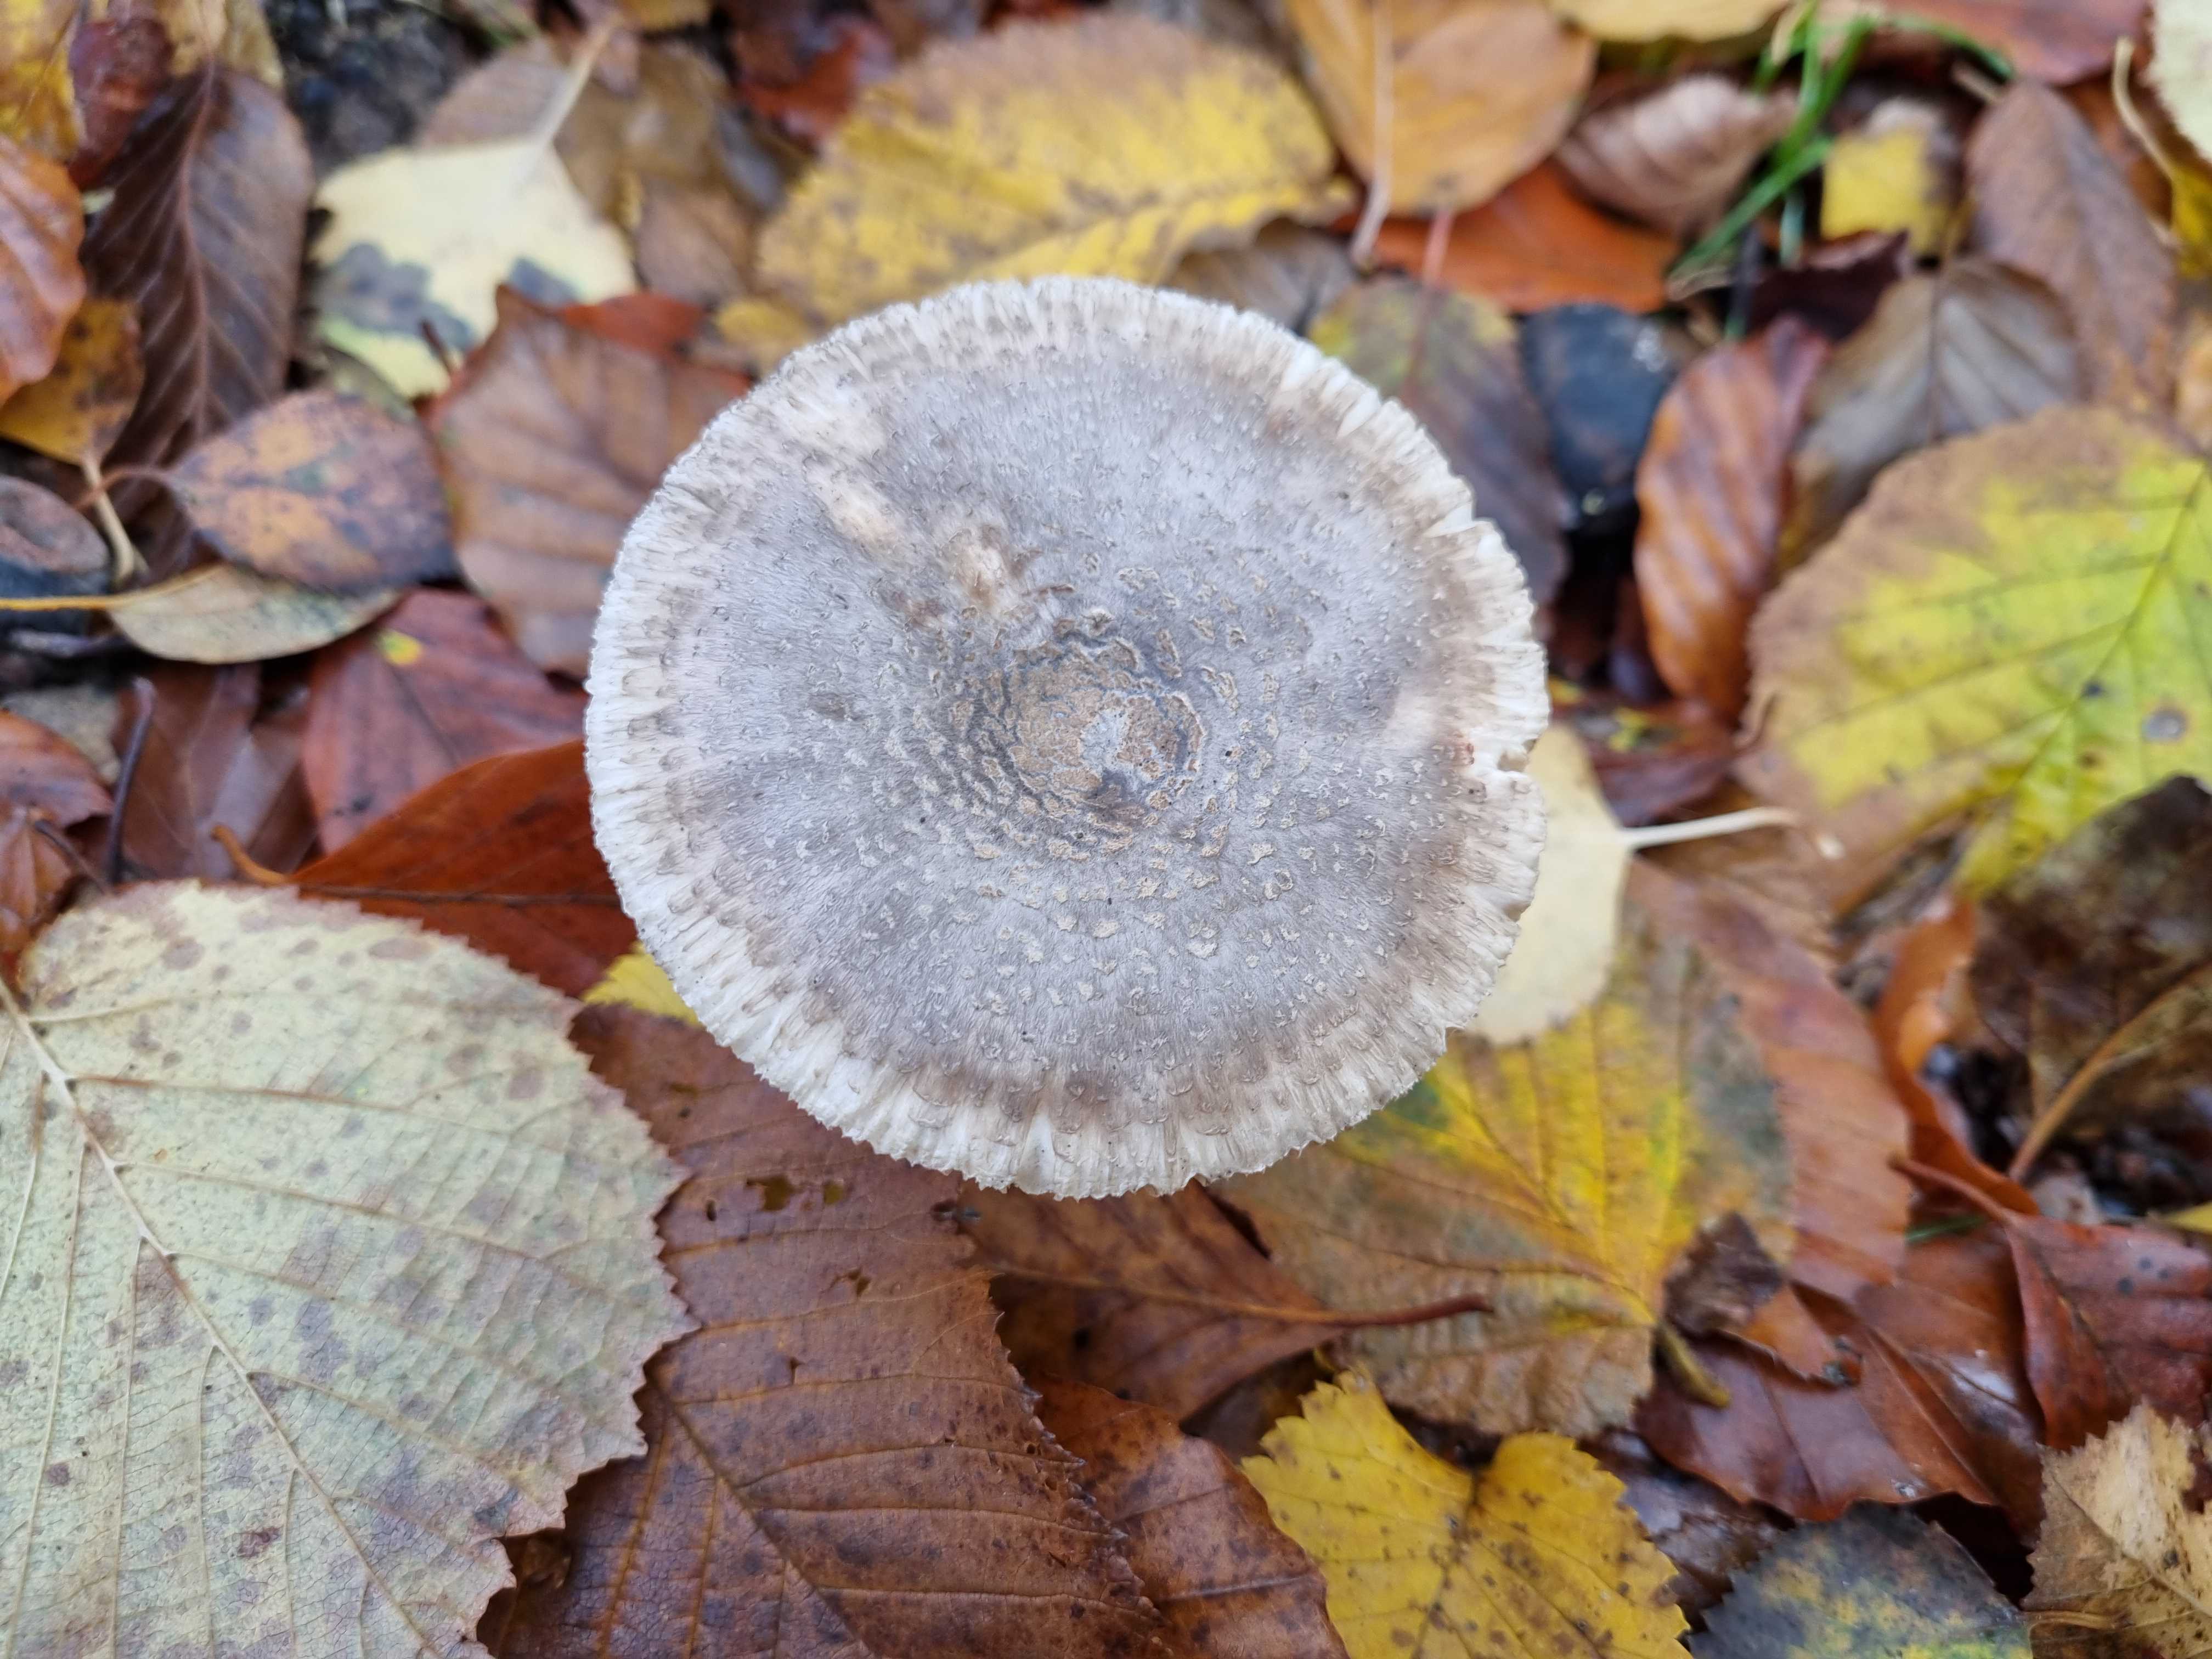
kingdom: Fungi
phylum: Basidiomycota
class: Agaricomycetes
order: Agaricales
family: Amanitaceae
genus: Amanita
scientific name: Amanita
